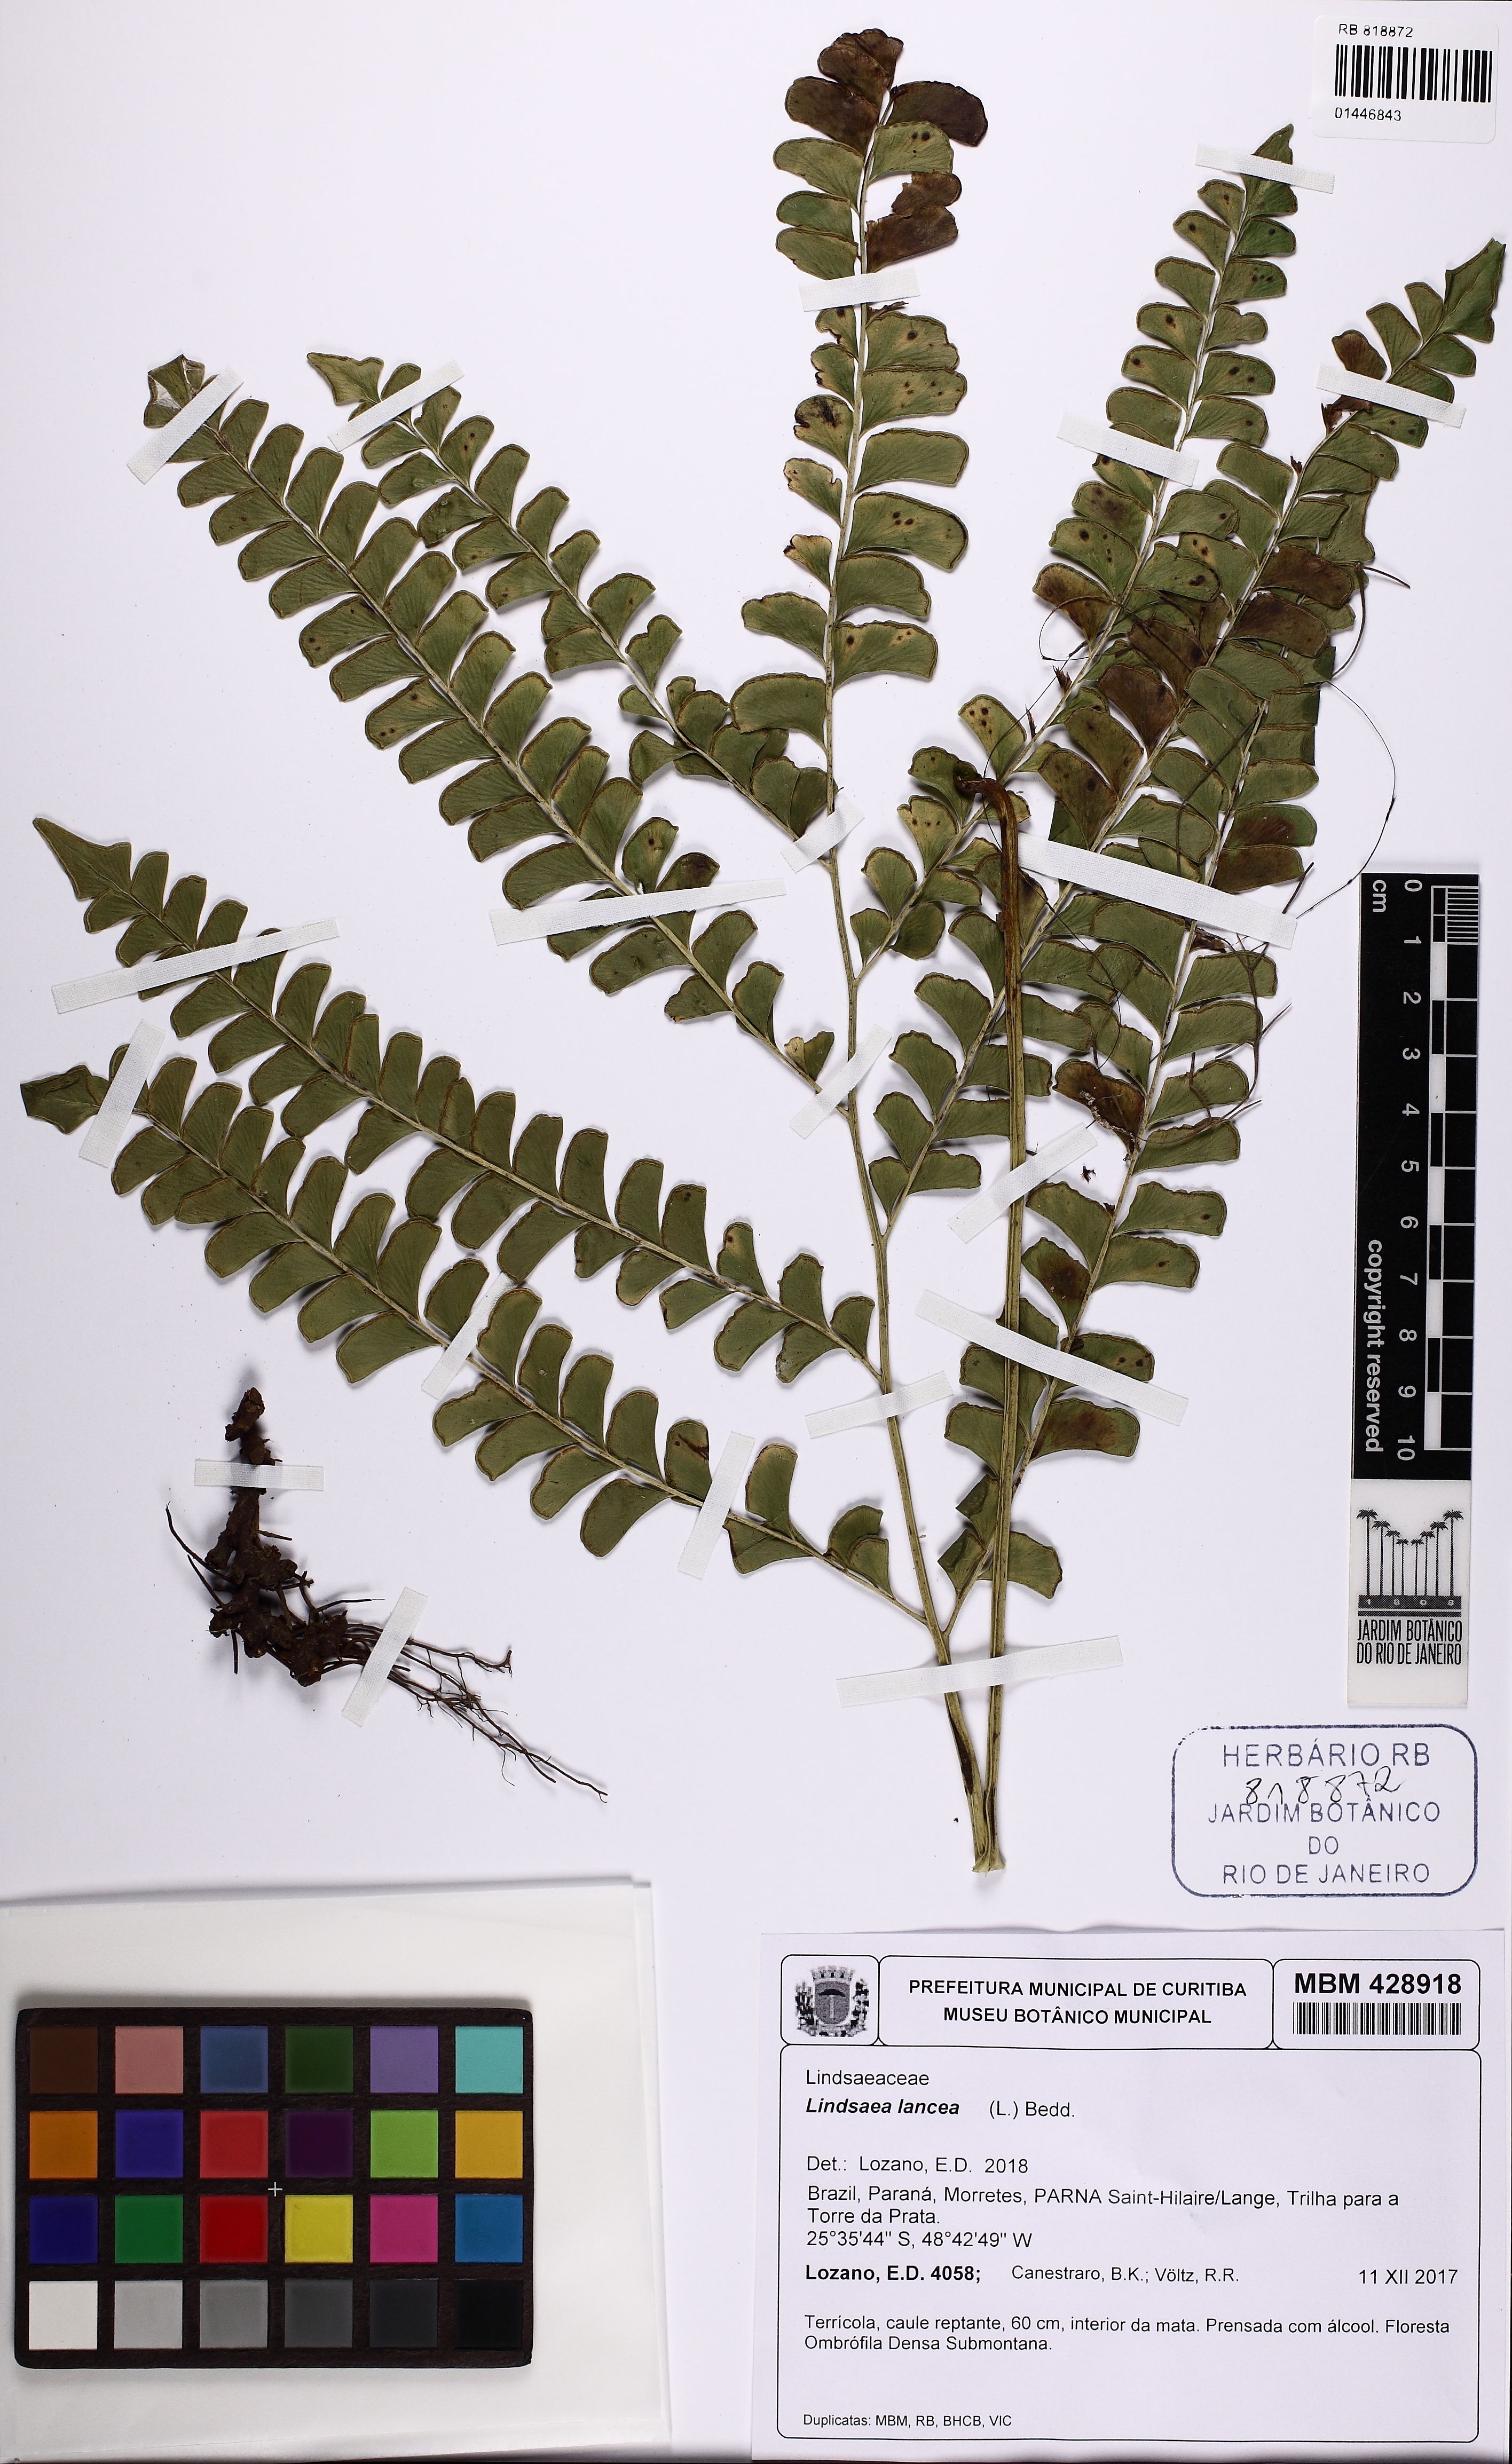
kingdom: Plantae
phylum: Tracheophyta
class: Polypodiopsida
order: Polypodiales
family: Lindsaeaceae
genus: Lindsaea
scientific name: Lindsaea lancea
